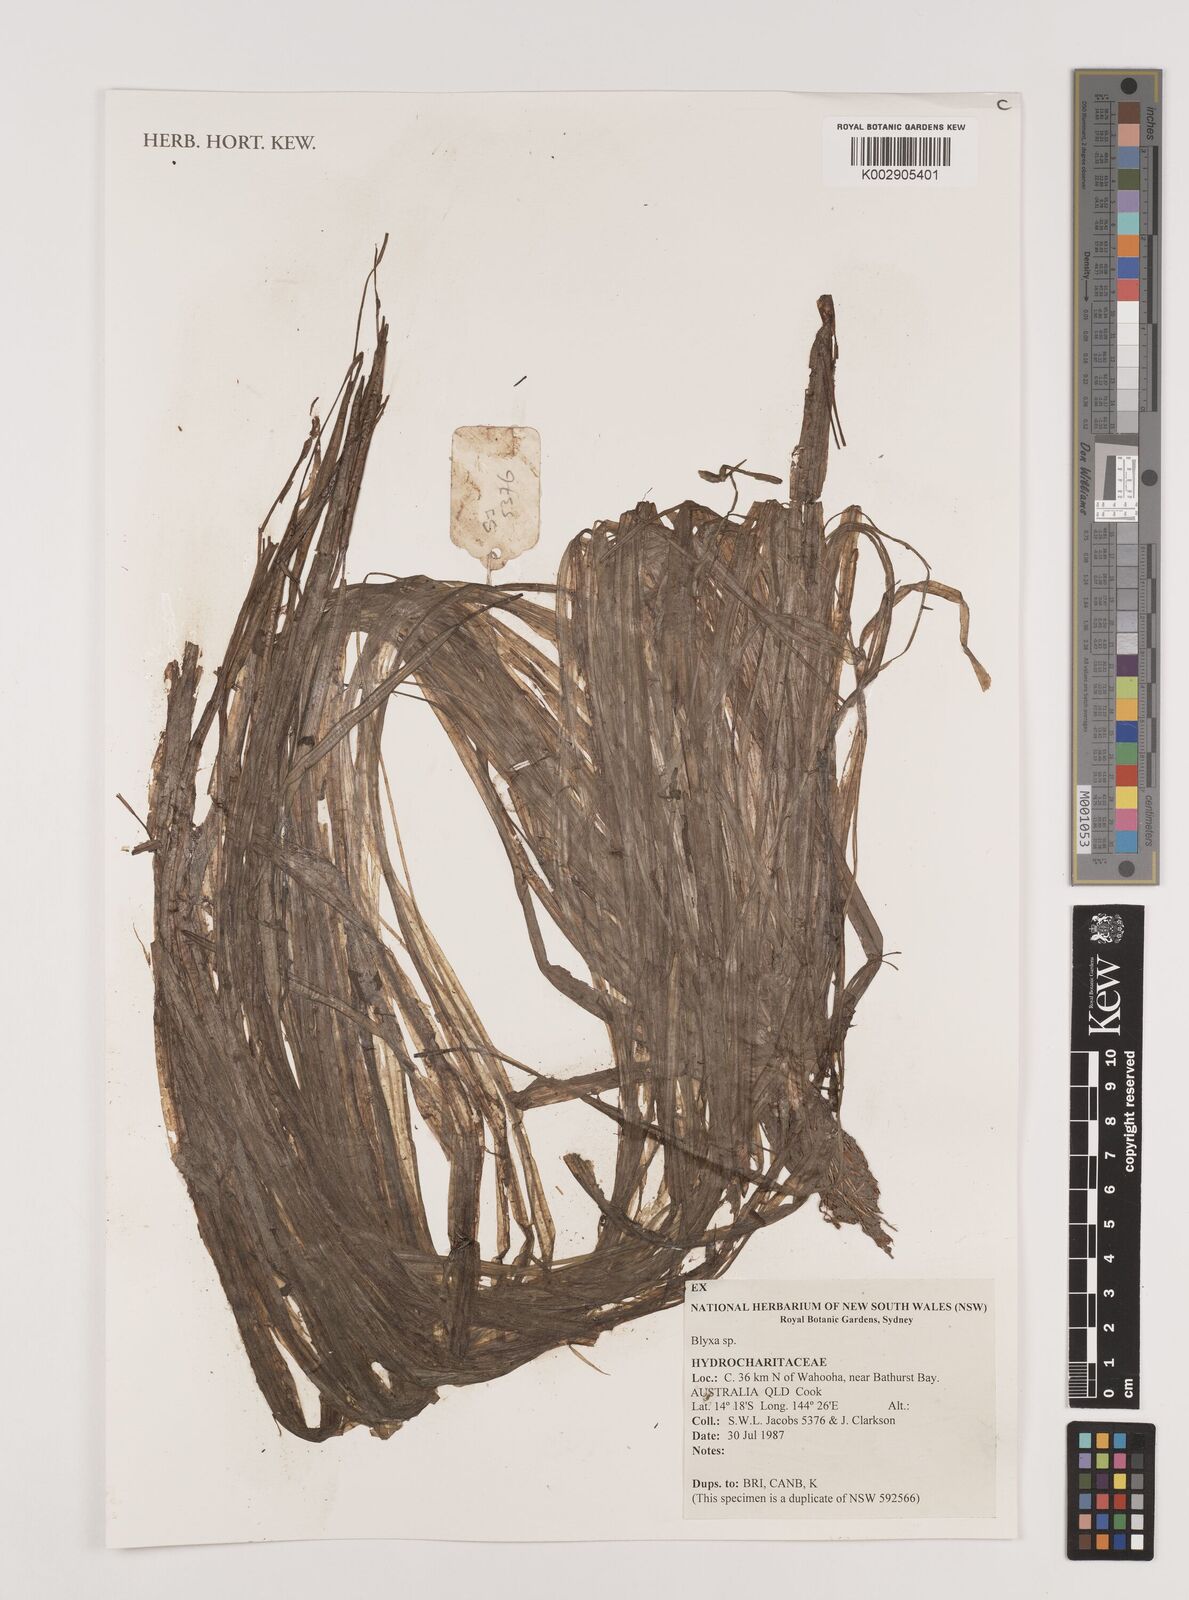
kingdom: Plantae
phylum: Tracheophyta
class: Liliopsida
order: Alismatales
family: Hydrocharitaceae
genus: Blyxa
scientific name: Blyxa
